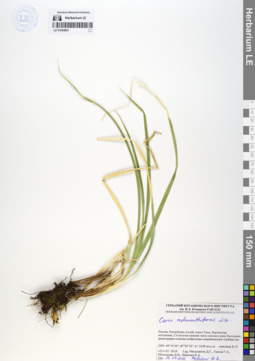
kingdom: Plantae
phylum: Tracheophyta
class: Liliopsida
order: Poales
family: Cyperaceae
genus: Carex
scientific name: Carex melananthiformis
